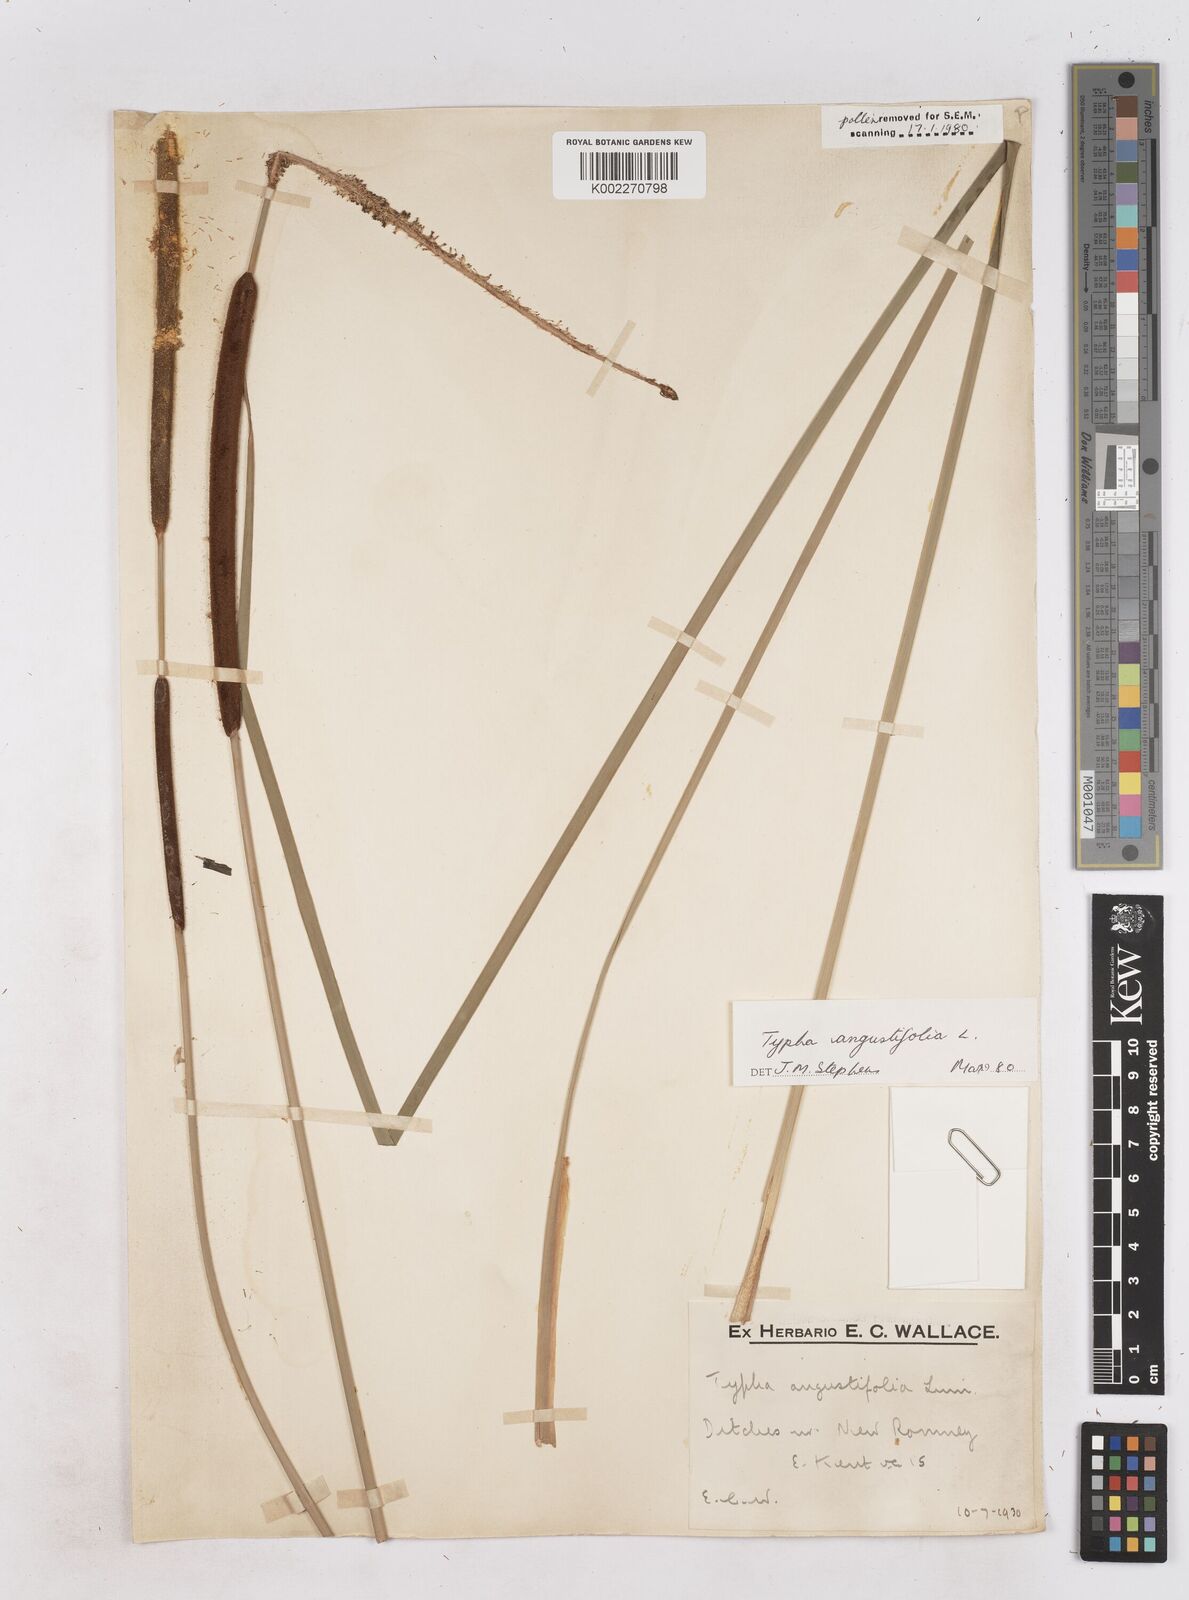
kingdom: Plantae
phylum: Tracheophyta
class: Liliopsida
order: Poales
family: Typhaceae
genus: Typha
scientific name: Typha angustifolia
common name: Lesser bulrush
